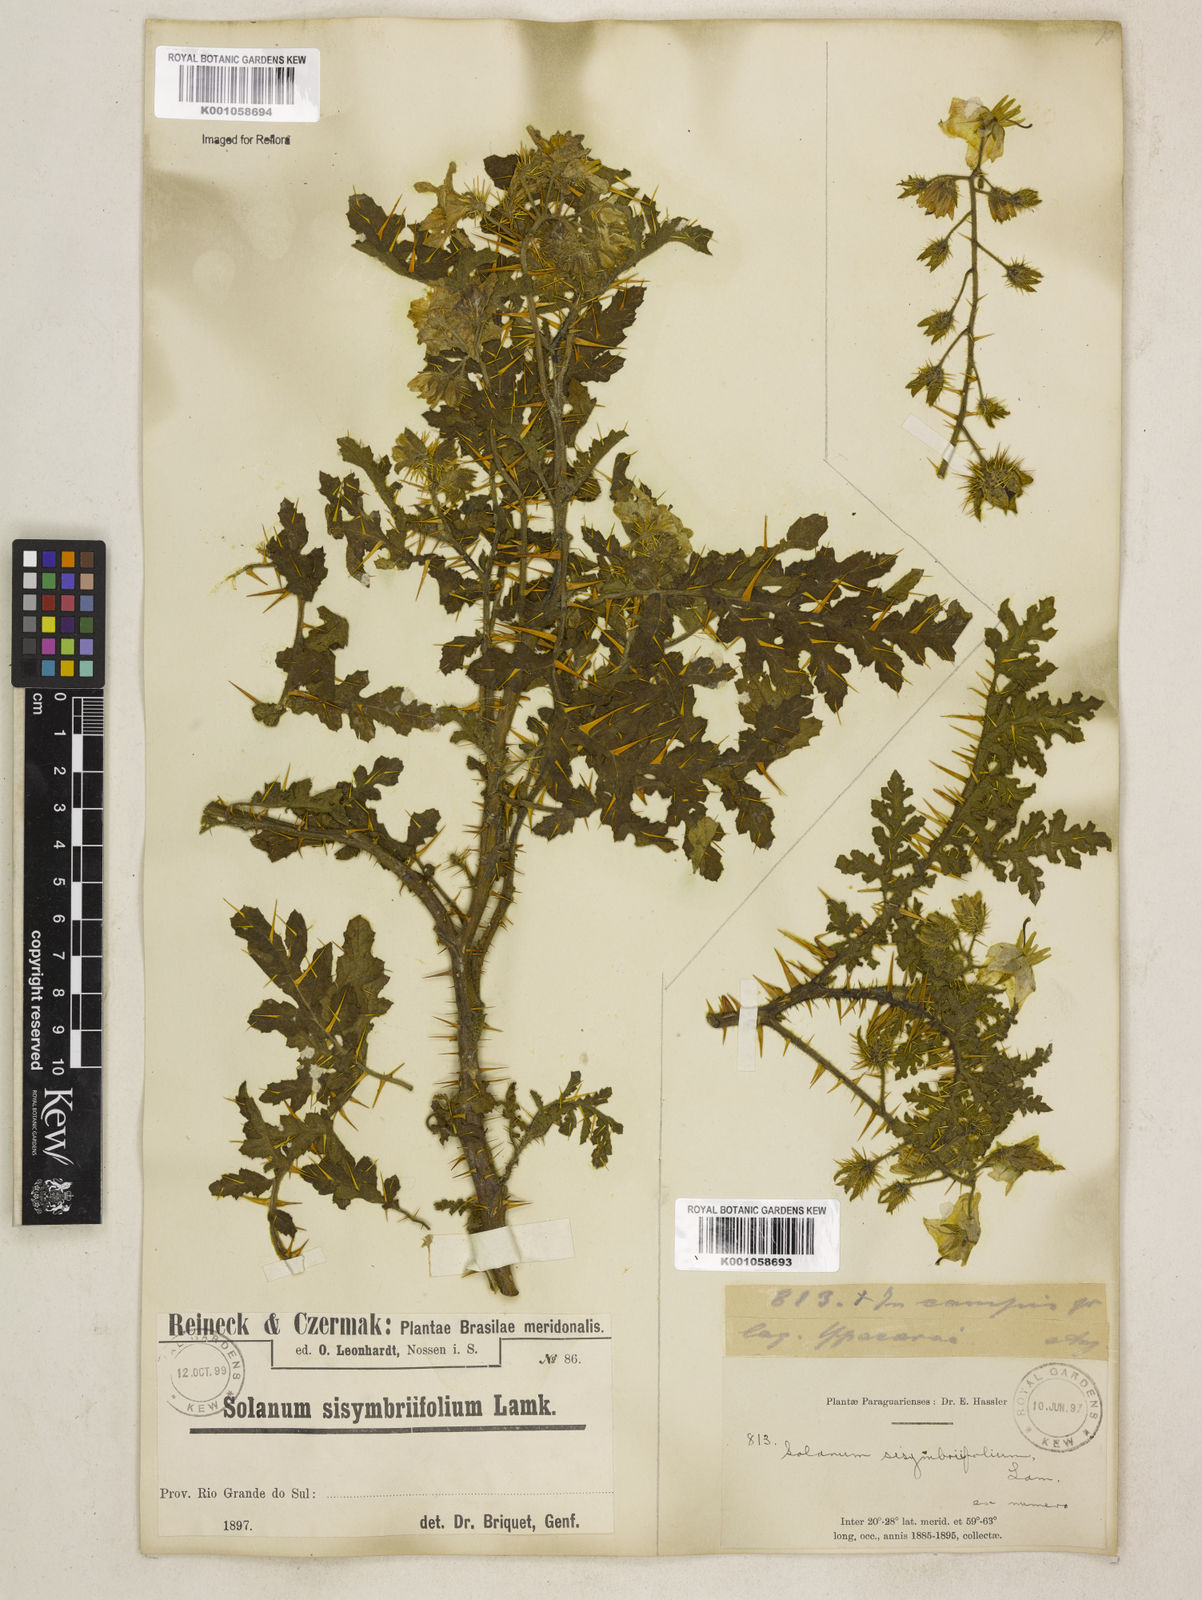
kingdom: Plantae
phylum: Tracheophyta
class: Magnoliopsida
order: Solanales
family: Solanaceae
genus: Solanum
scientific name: Solanum sisymbriifolium
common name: Red buffalo-bur
